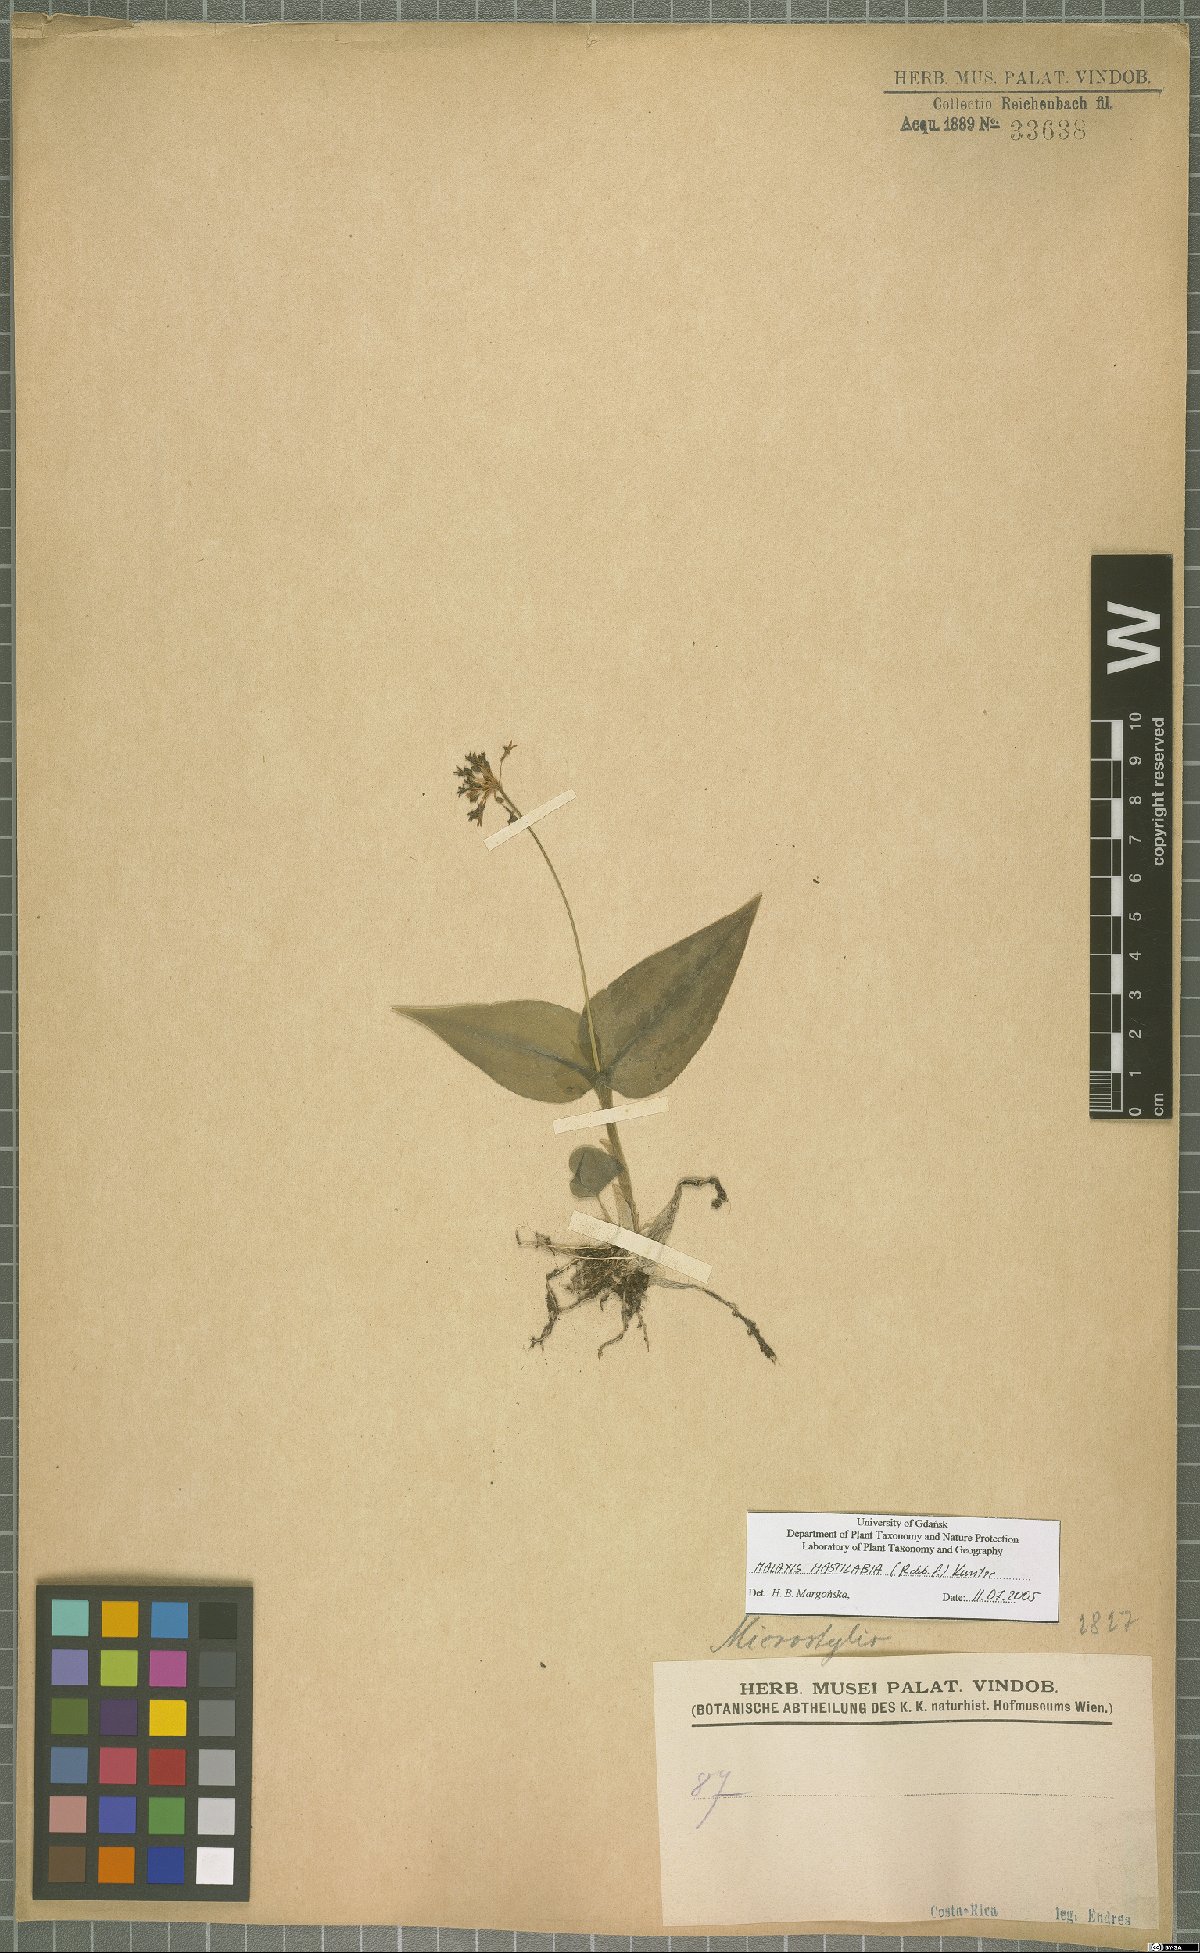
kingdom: Plantae
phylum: Tracheophyta
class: Liliopsida
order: Asparagales
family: Orchidaceae
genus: Malaxis
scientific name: Malaxis excavata
